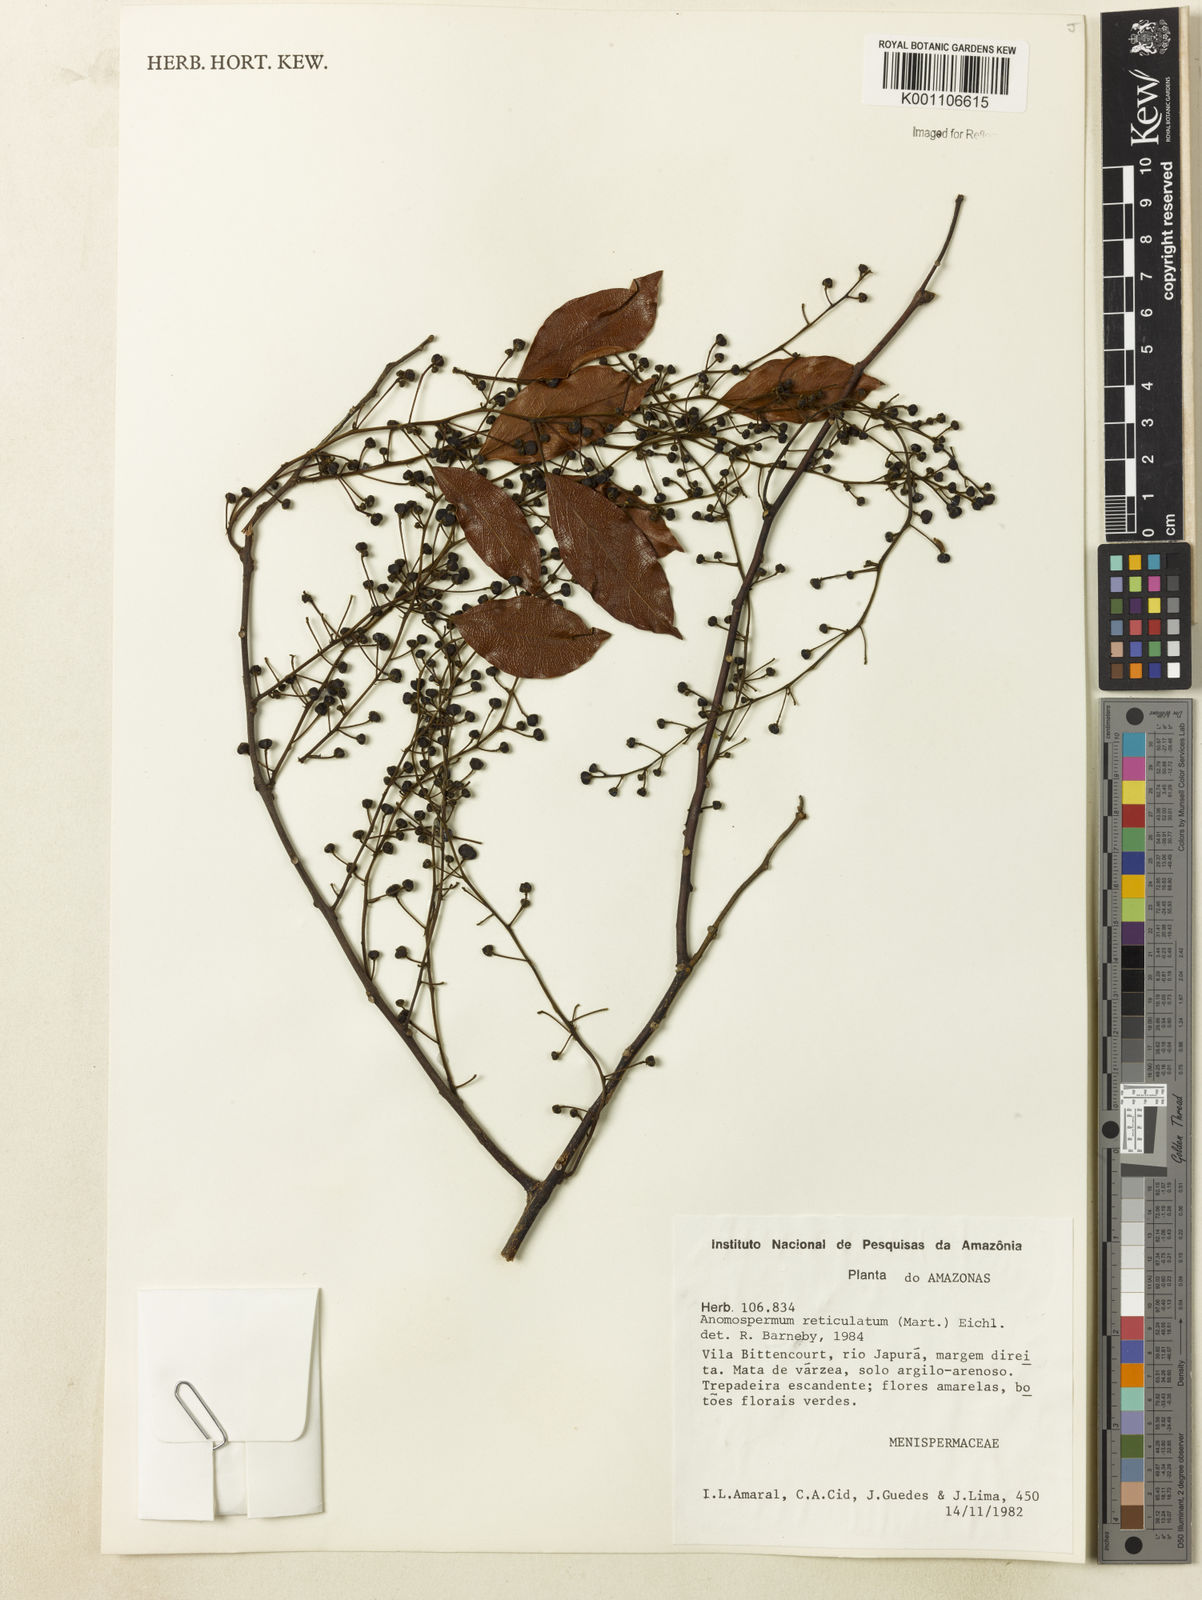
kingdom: Plantae
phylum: Tracheophyta
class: Magnoliopsida
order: Ranunculales
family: Menispermaceae
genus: Anomospermum
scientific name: Anomospermum reticulatum
